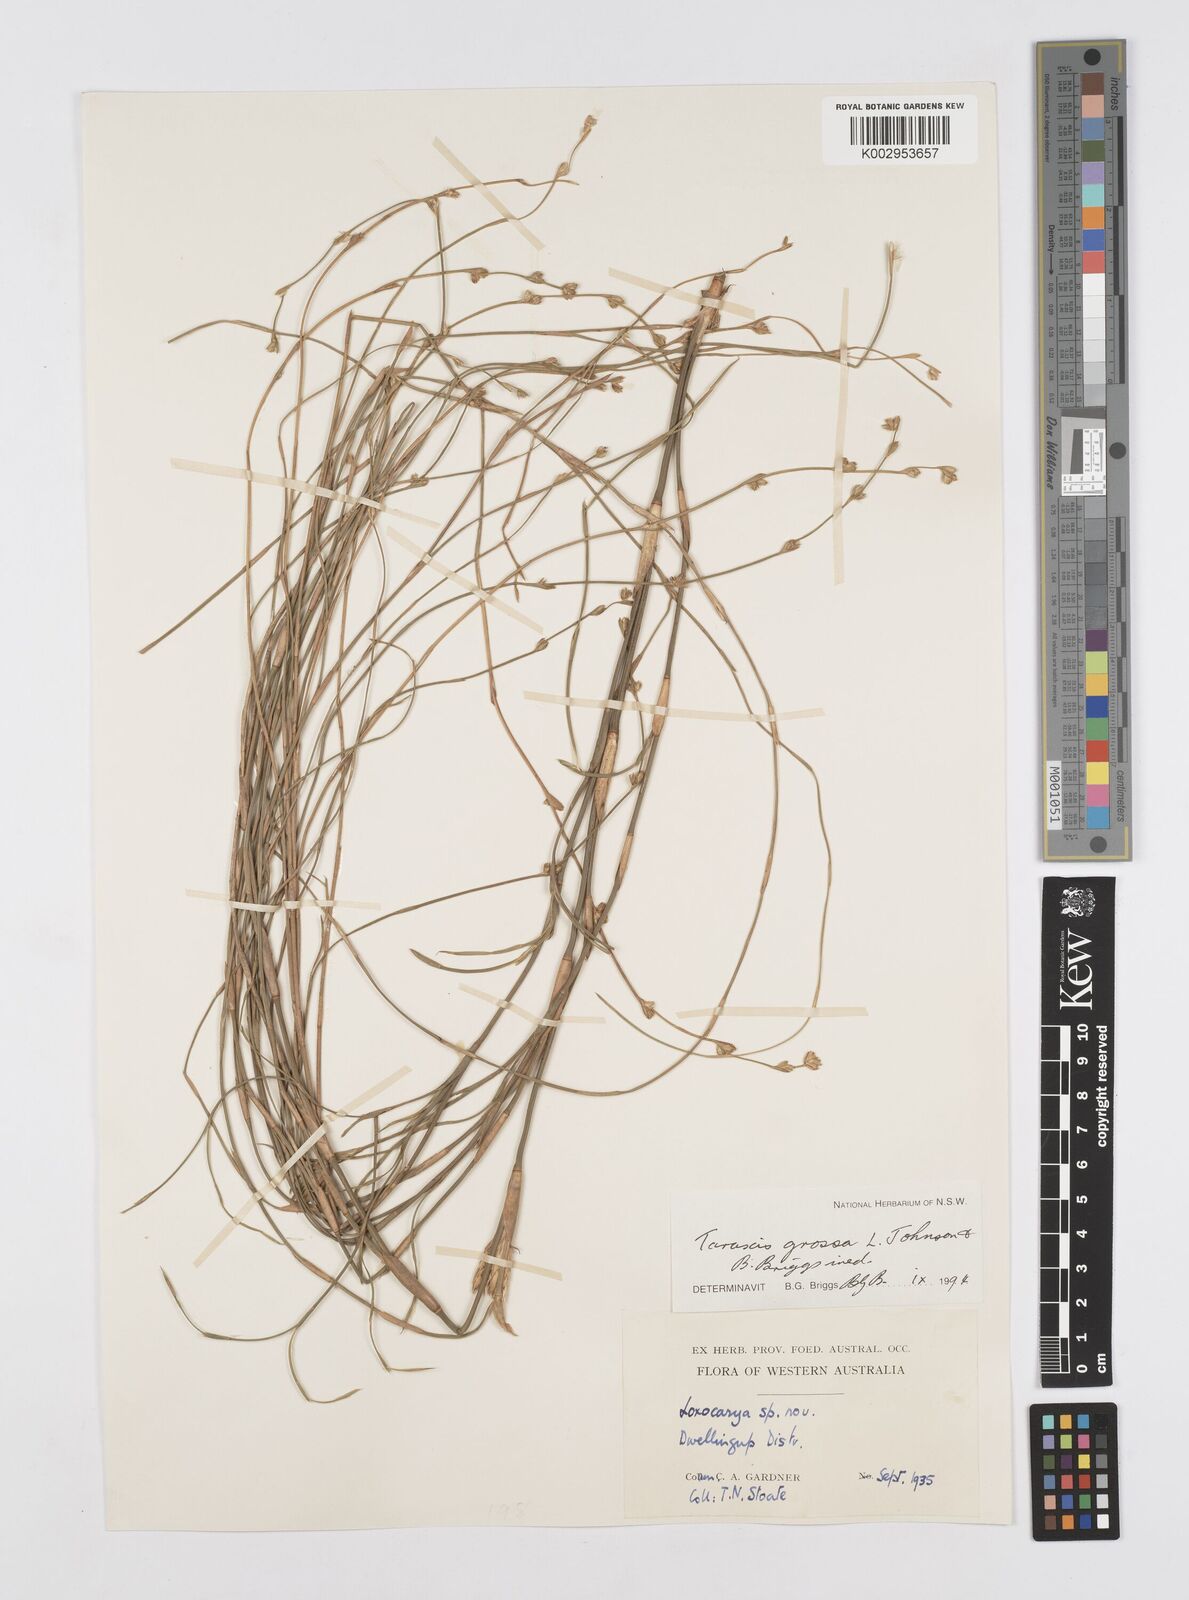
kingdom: Plantae
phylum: Tracheophyta
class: Liliopsida
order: Poales
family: Restionaceae
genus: Taraxis
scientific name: Taraxis grossa
